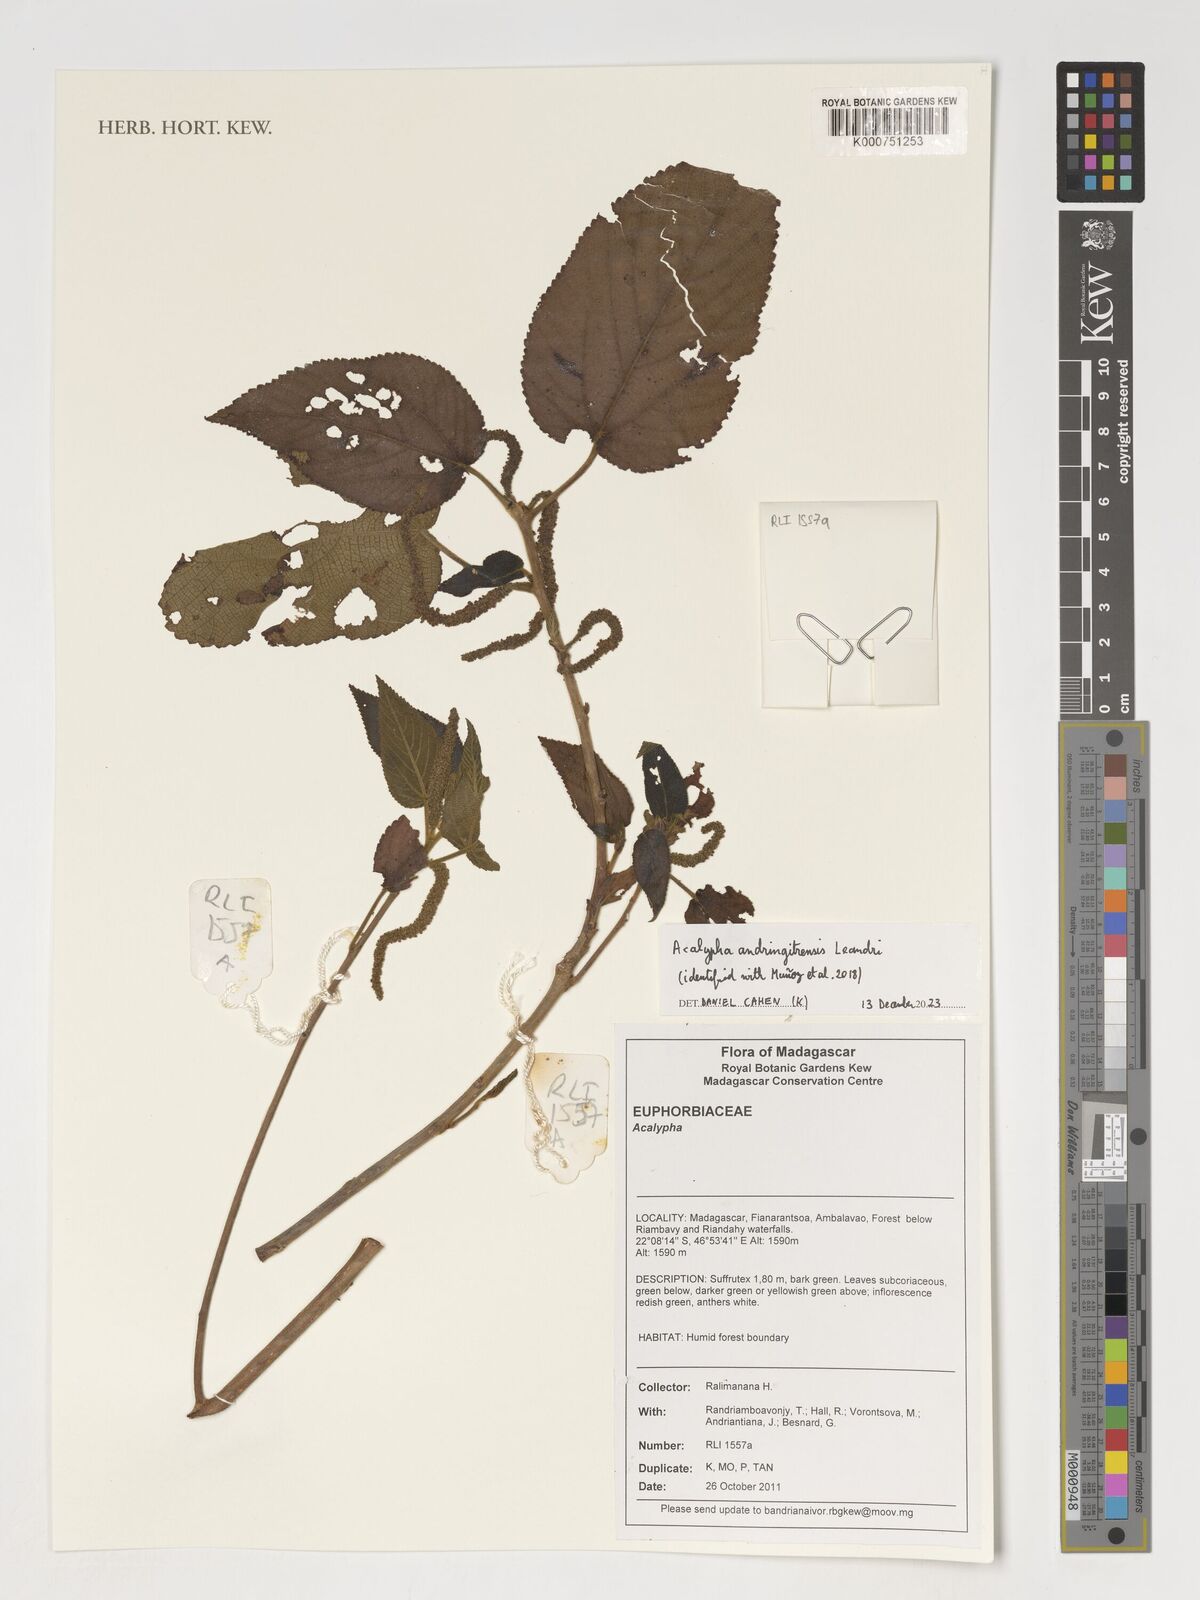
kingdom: Plantae
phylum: Tracheophyta
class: Magnoliopsida
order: Malpighiales
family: Euphorbiaceae
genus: Acalypha
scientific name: Acalypha radula
